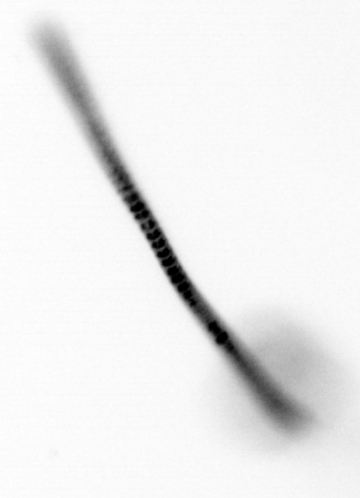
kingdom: Chromista
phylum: Ochrophyta
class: Bacillariophyceae
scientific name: Bacillariophyceae
